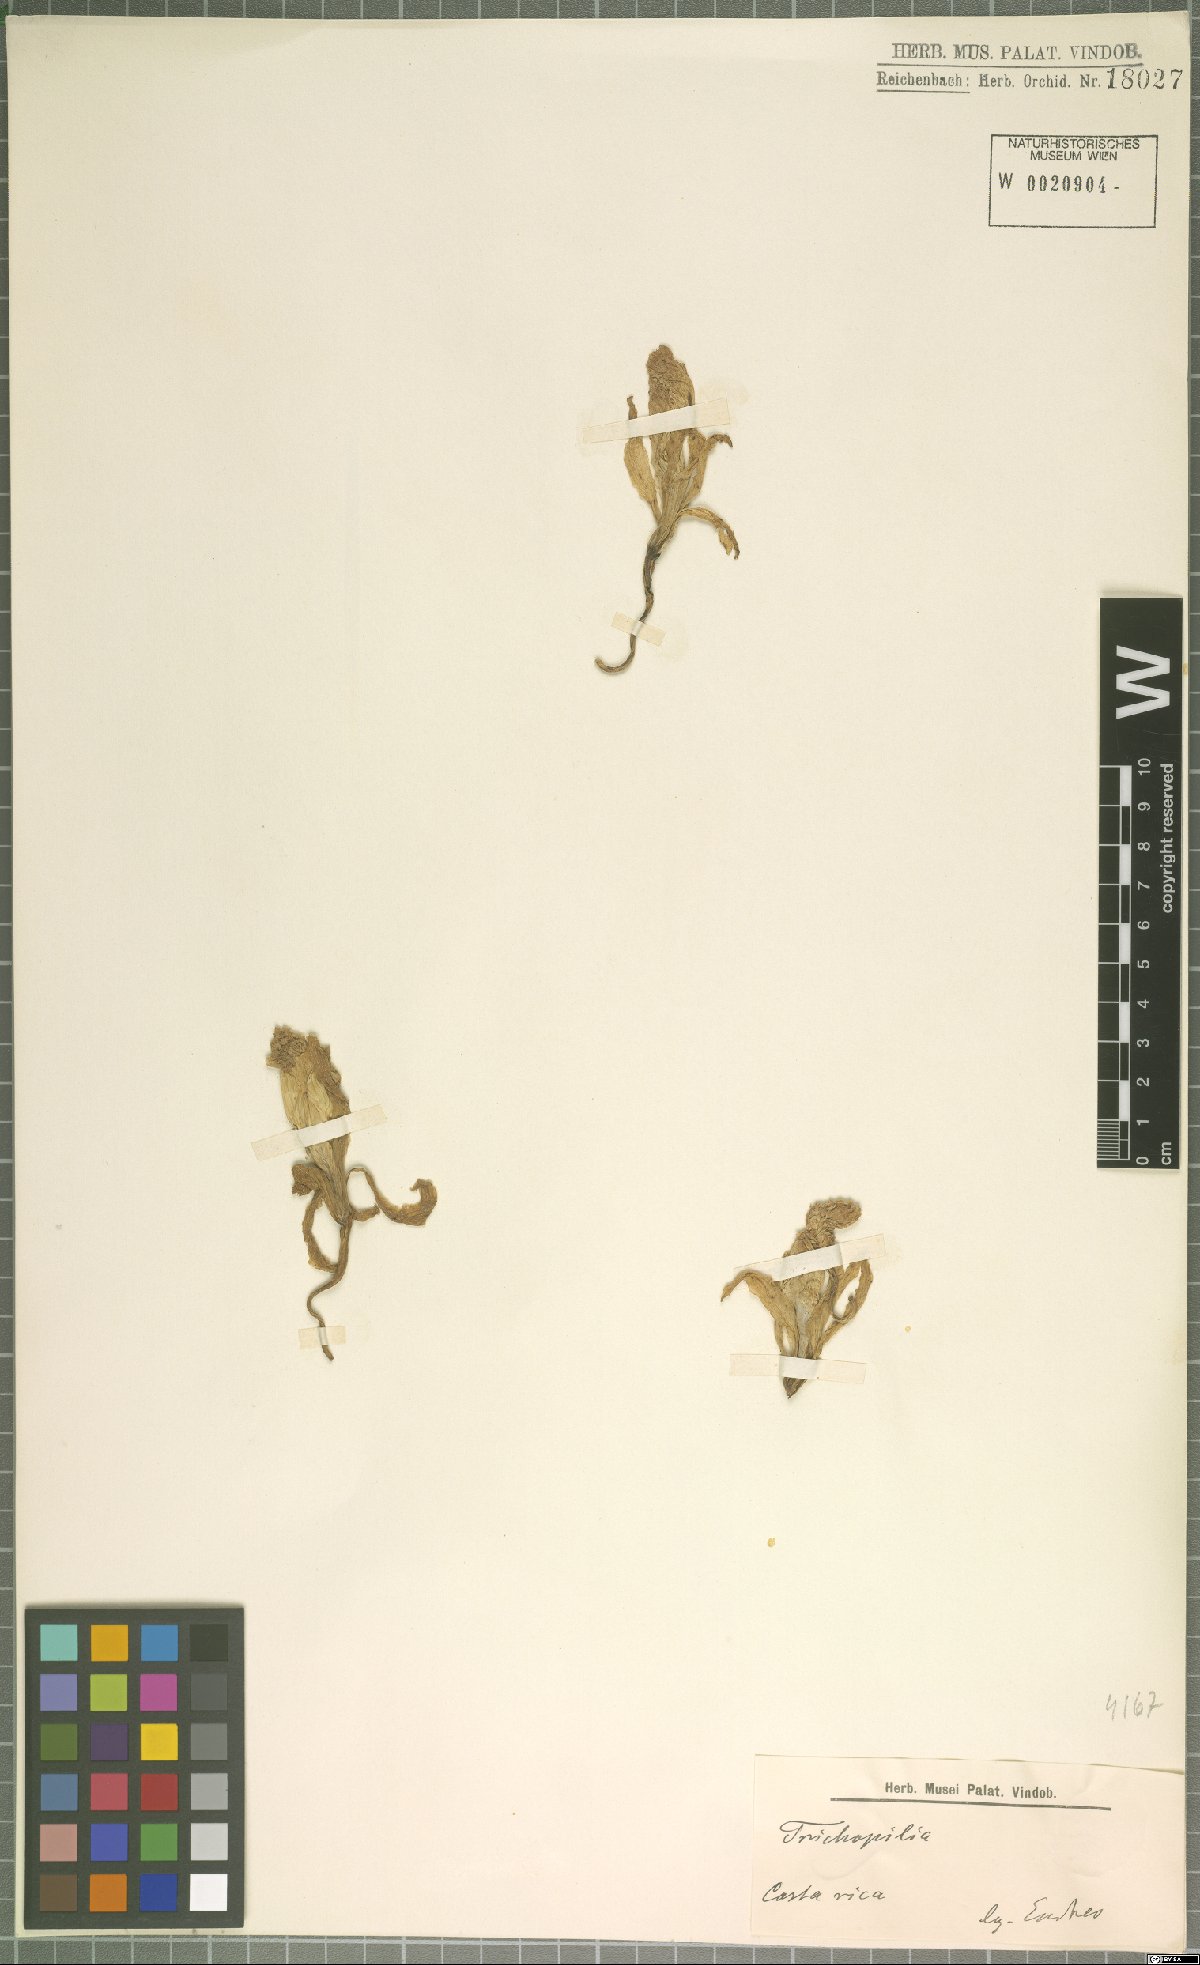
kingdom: Plantae
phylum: Tracheophyta
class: Liliopsida
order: Asparagales
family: Orchidaceae
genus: Trichopilia
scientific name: Trichopilia
